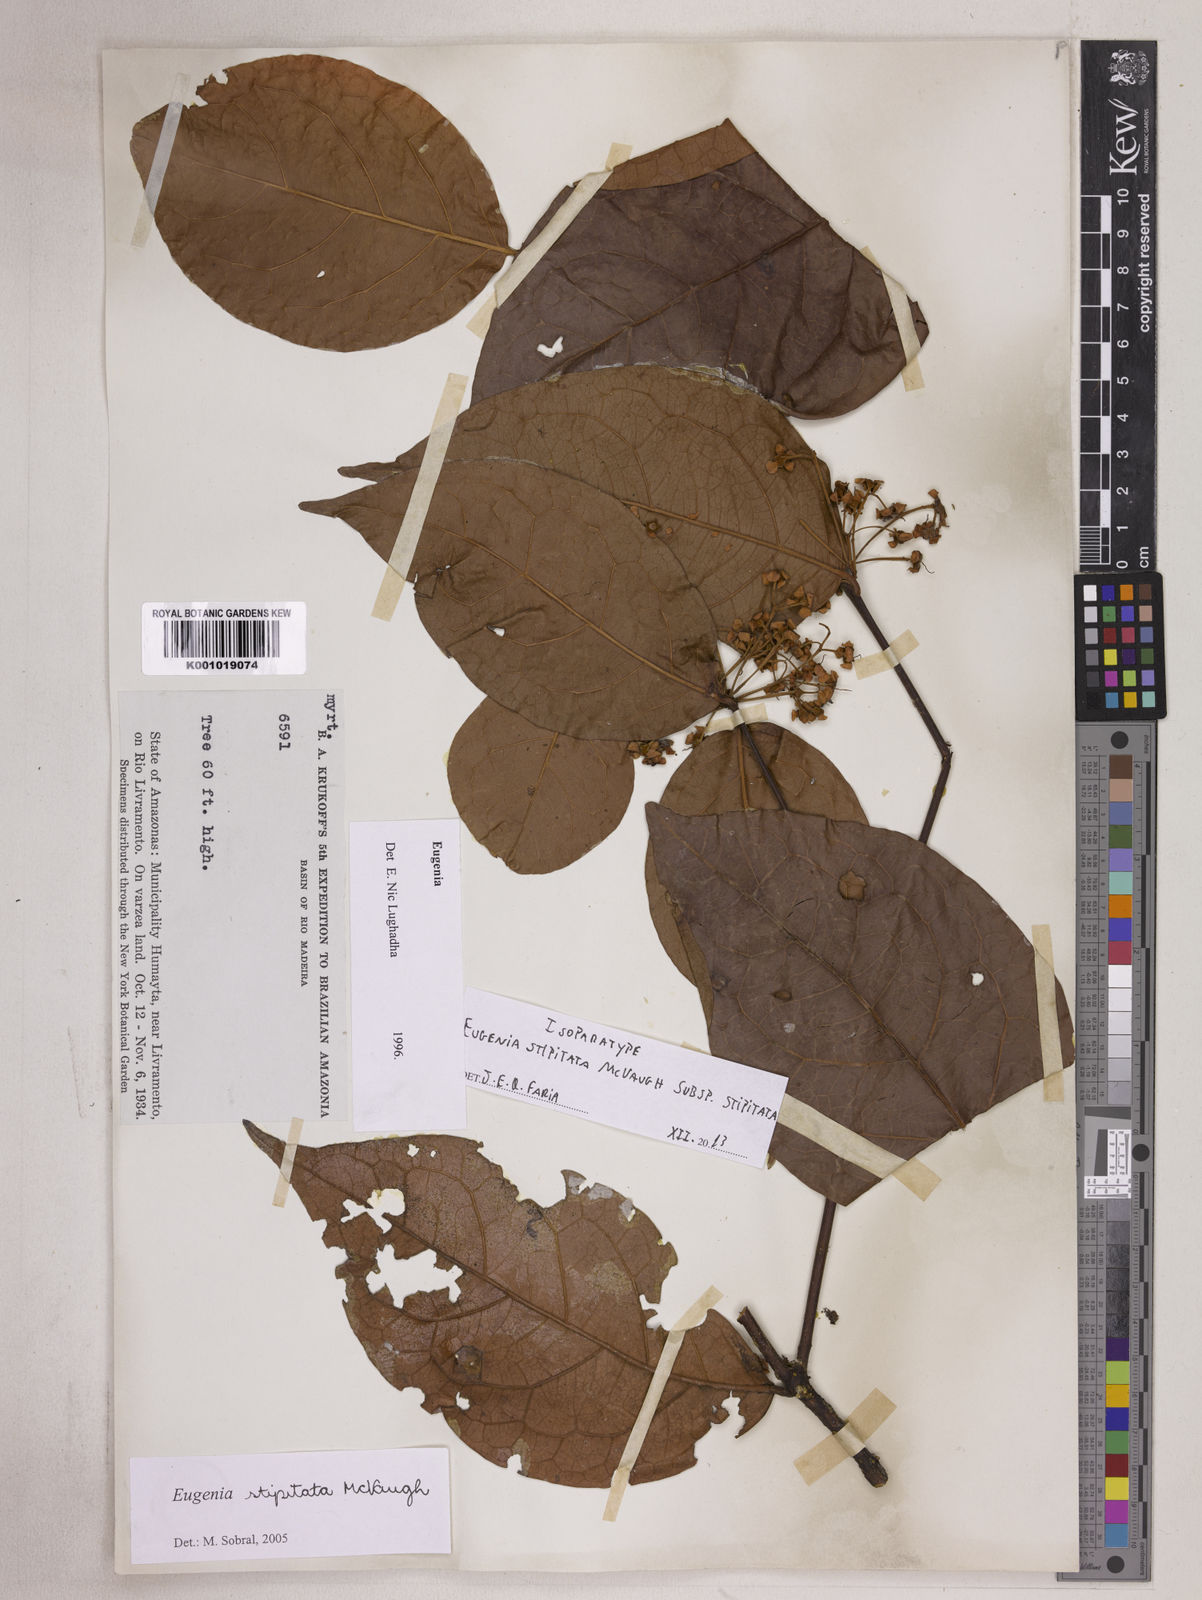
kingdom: Plantae
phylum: Tracheophyta
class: Magnoliopsida
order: Myrtales
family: Myrtaceae
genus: Eugenia
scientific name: Eugenia stipitata
